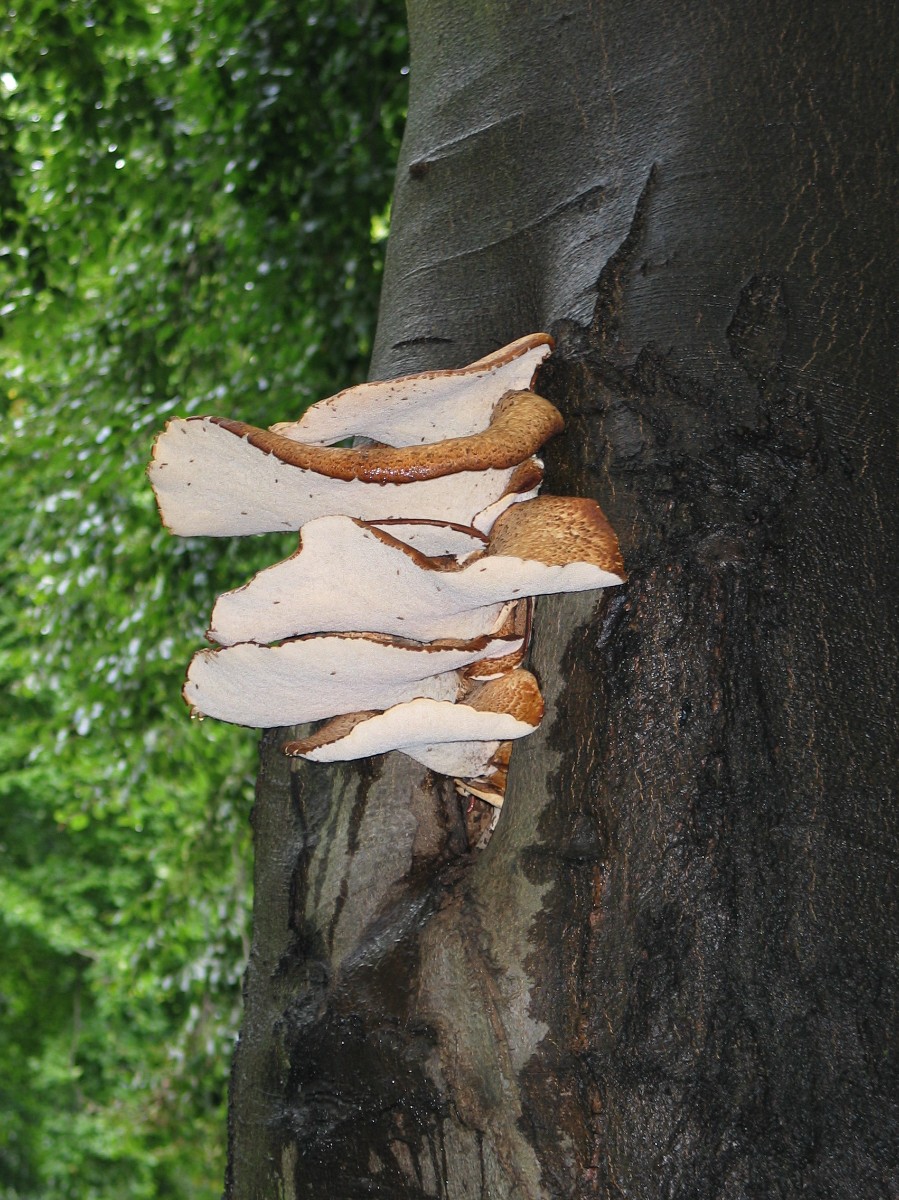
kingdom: Fungi
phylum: Basidiomycota
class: Agaricomycetes
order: Polyporales
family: Polyporaceae
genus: Cerioporus
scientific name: Cerioporus squamosus
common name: skællet stilkporesvamp
